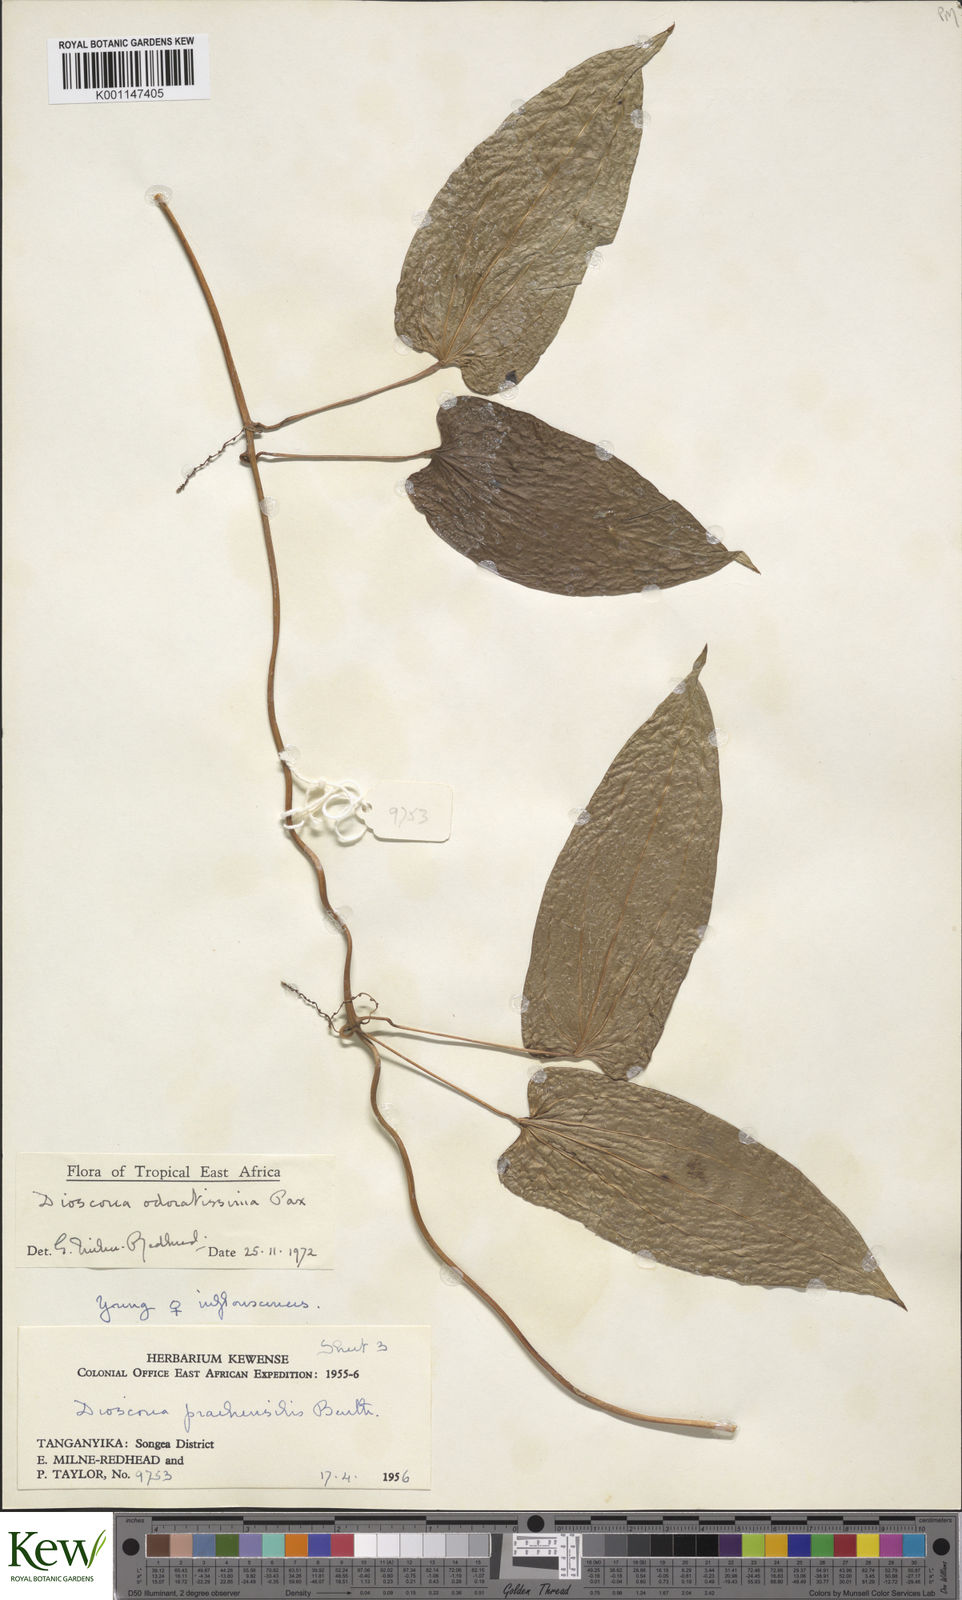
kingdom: Plantae
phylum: Tracheophyta
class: Liliopsida
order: Dioscoreales
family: Dioscoreaceae
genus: Dioscorea
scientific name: Dioscorea praehensilis
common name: Bush yam
